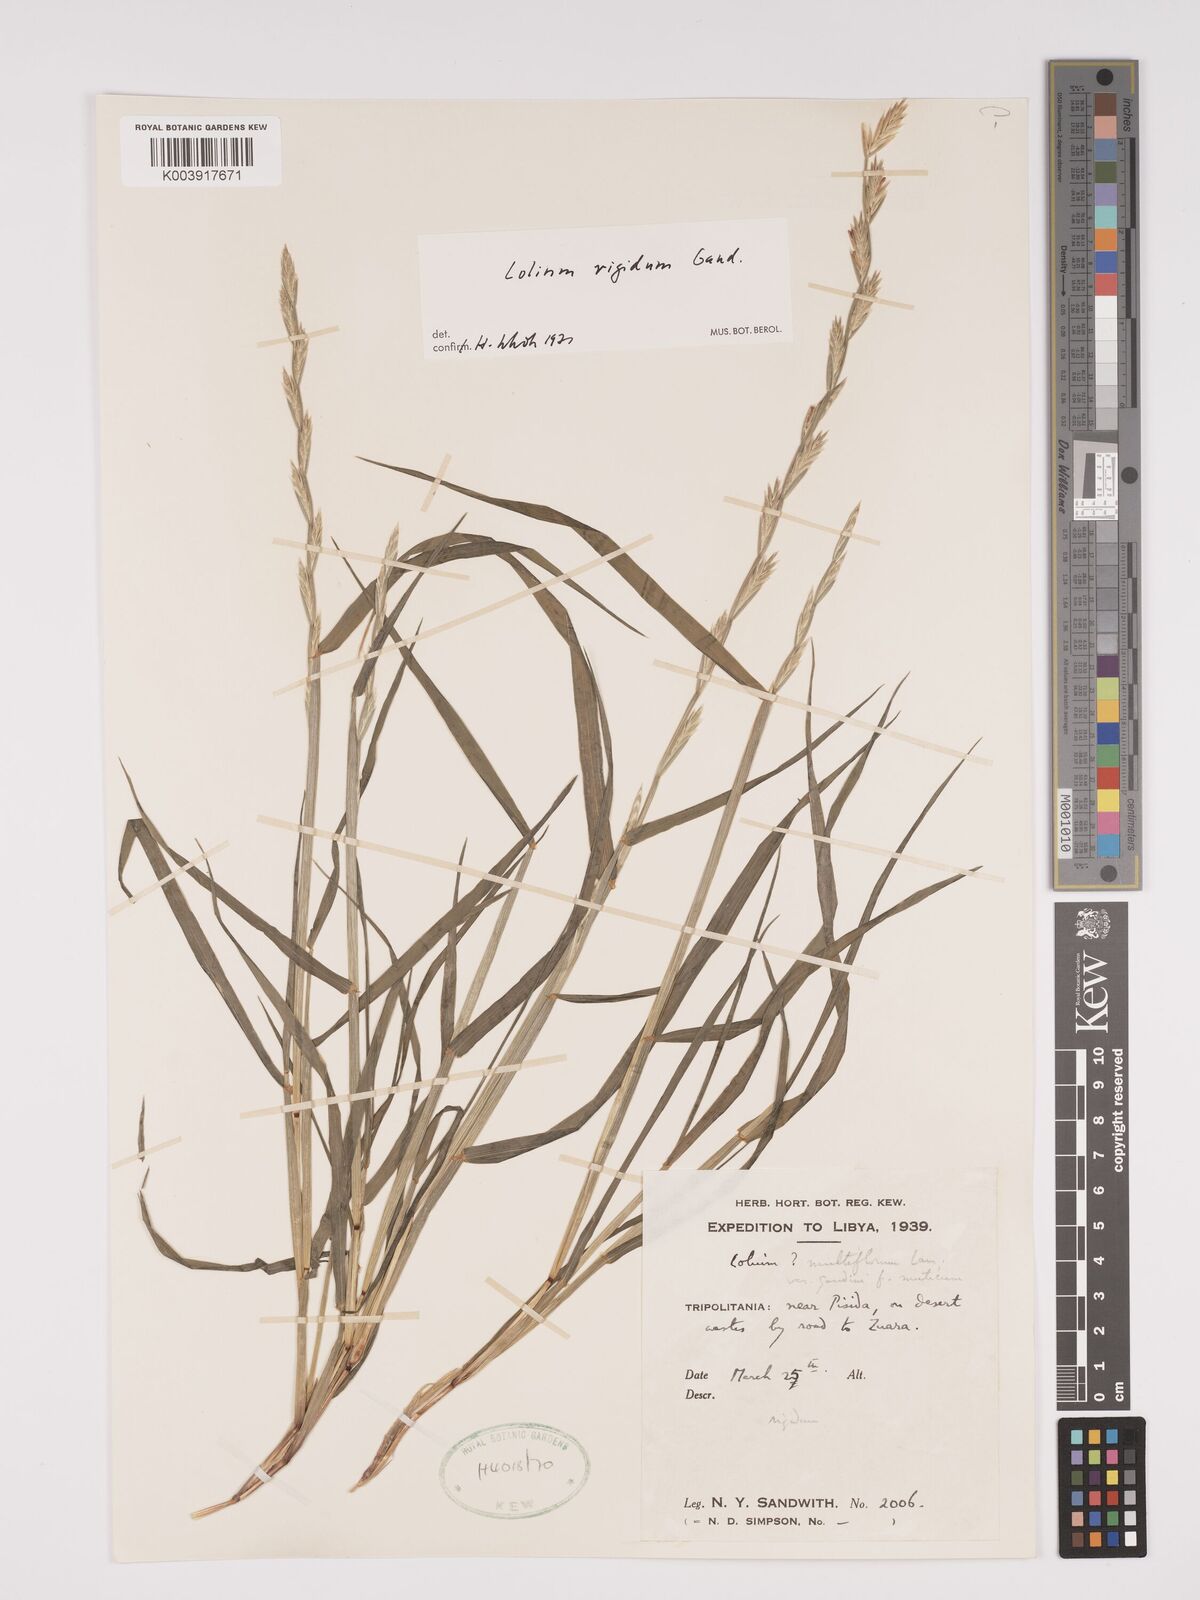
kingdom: Plantae
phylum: Tracheophyta
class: Liliopsida
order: Poales
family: Poaceae
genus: Lolium
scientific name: Lolium rigidum
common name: Wimmera ryegrass
